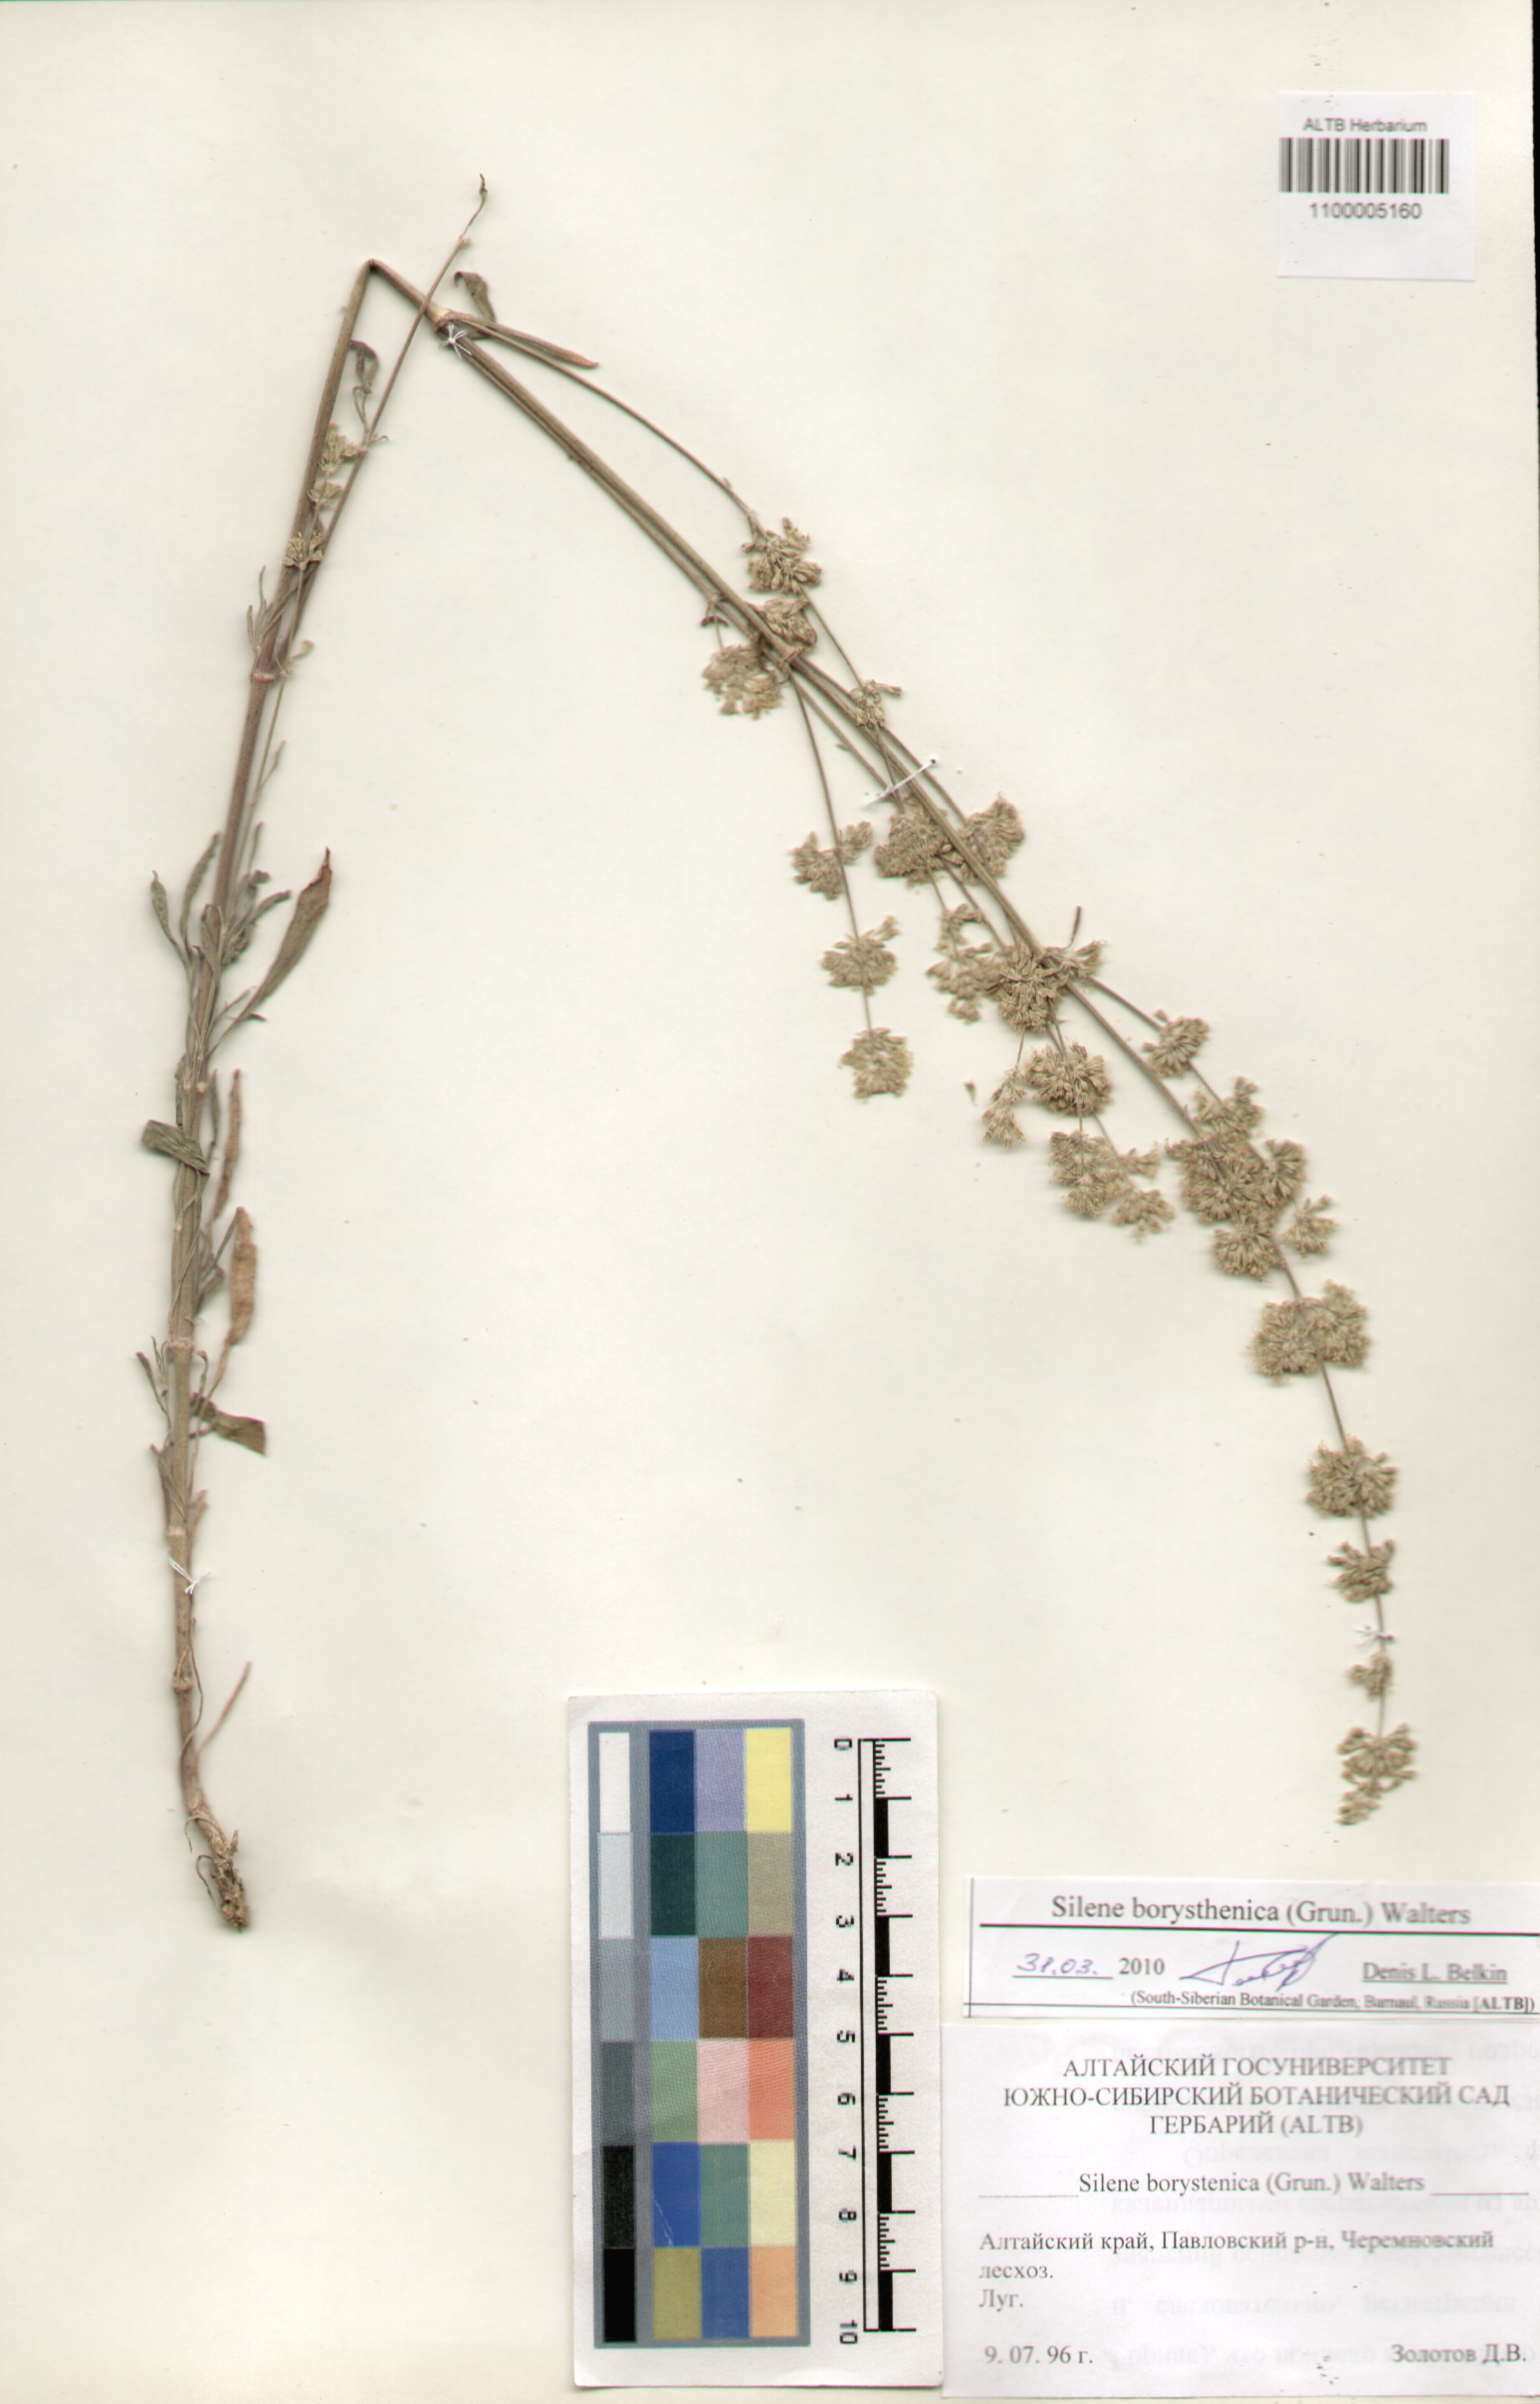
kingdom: Plantae
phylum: Tracheophyta
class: Magnoliopsida
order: Caryophyllales
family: Caryophyllaceae
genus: Silene
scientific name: Silene borysthenica
